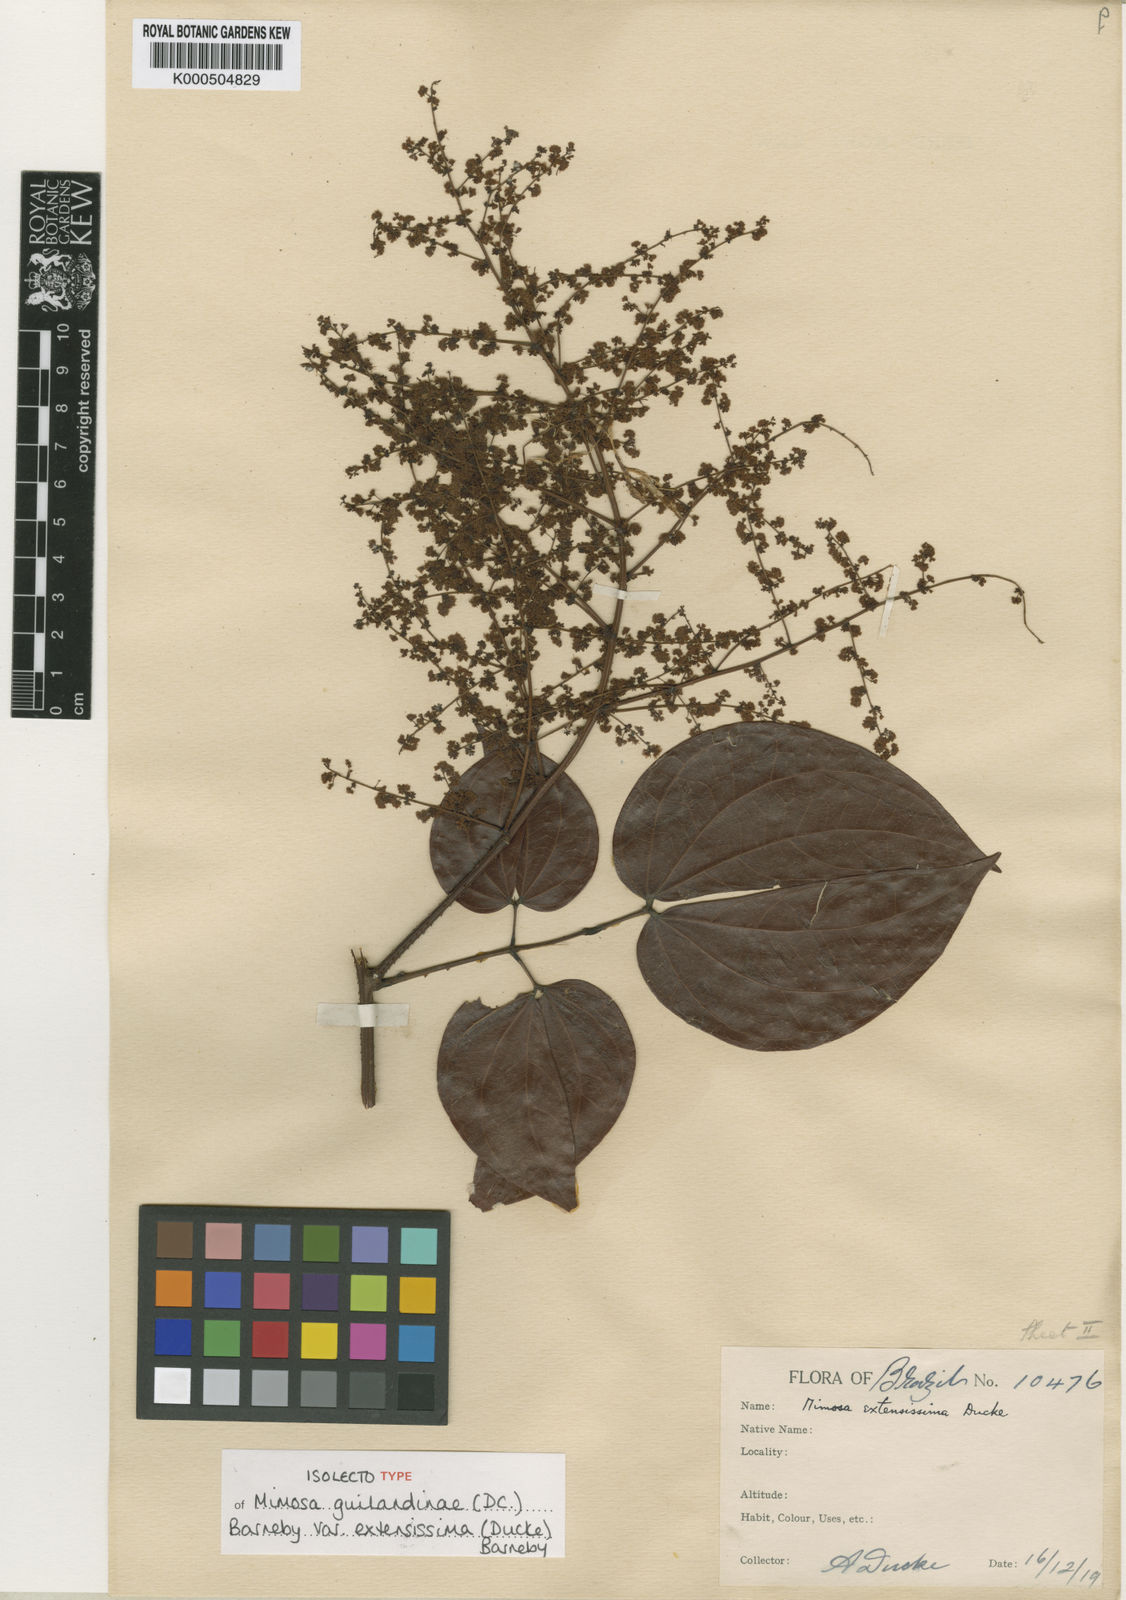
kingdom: Plantae
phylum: Tracheophyta
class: Magnoliopsida
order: Fabales
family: Fabaceae
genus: Mimosa
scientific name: Mimosa guilandinae
